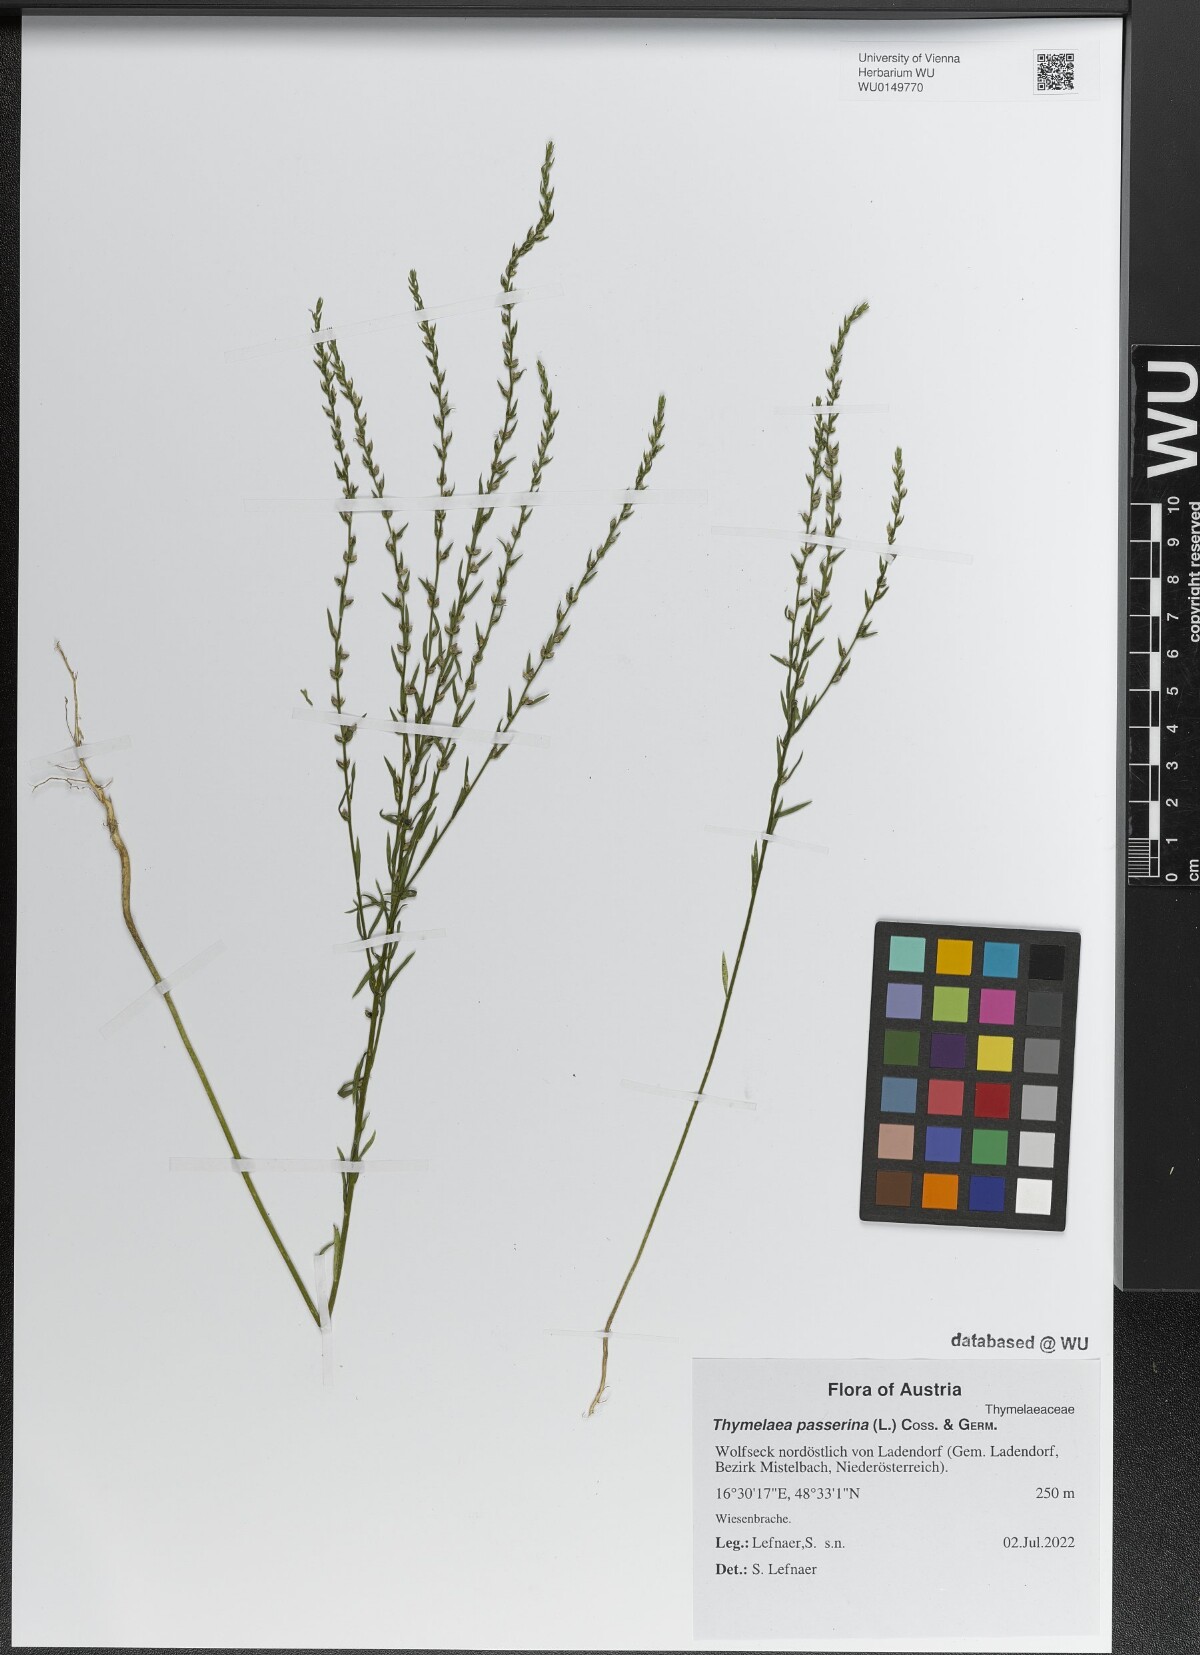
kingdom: Plantae
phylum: Tracheophyta
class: Magnoliopsida
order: Malvales
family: Thymelaeaceae
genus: Thymelaea
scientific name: Thymelaea passerina
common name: Annual thymelaea
